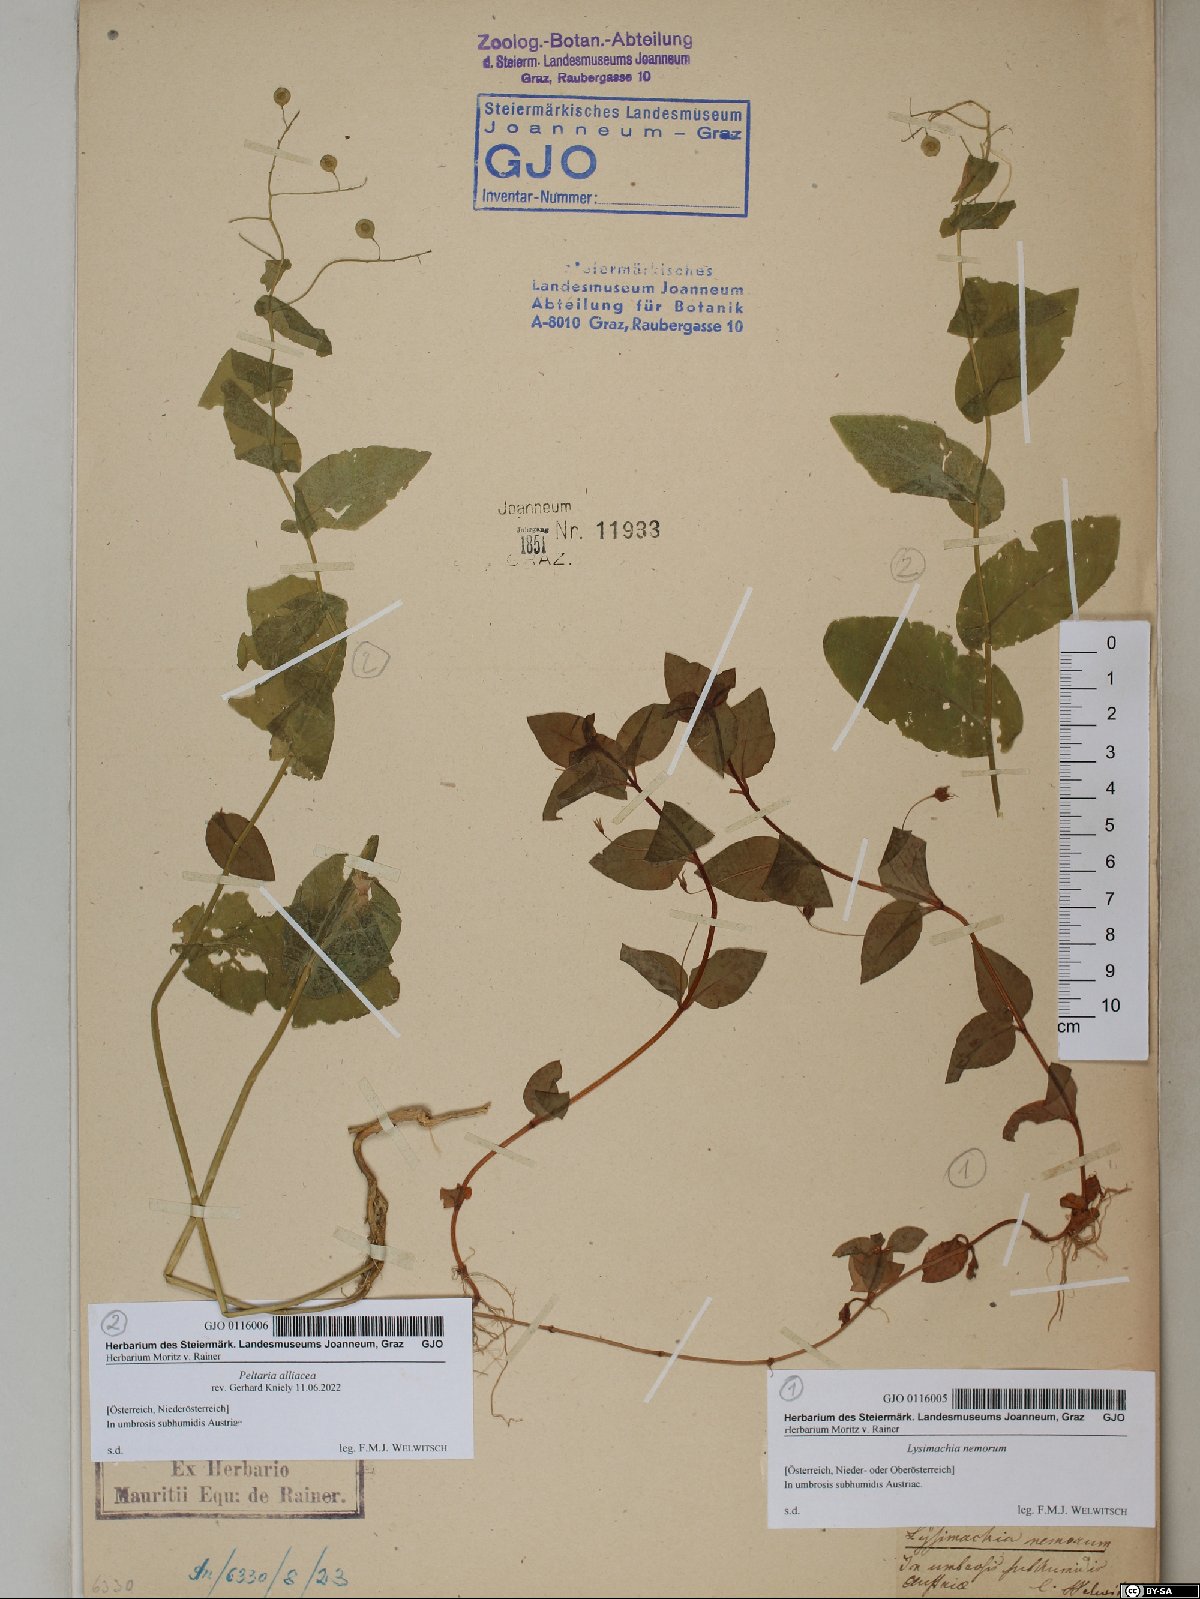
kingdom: Plantae
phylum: Tracheophyta
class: Magnoliopsida
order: Ericales
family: Primulaceae
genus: Lysimachia
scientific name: Lysimachia nemorum
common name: Yellow pimpernel
